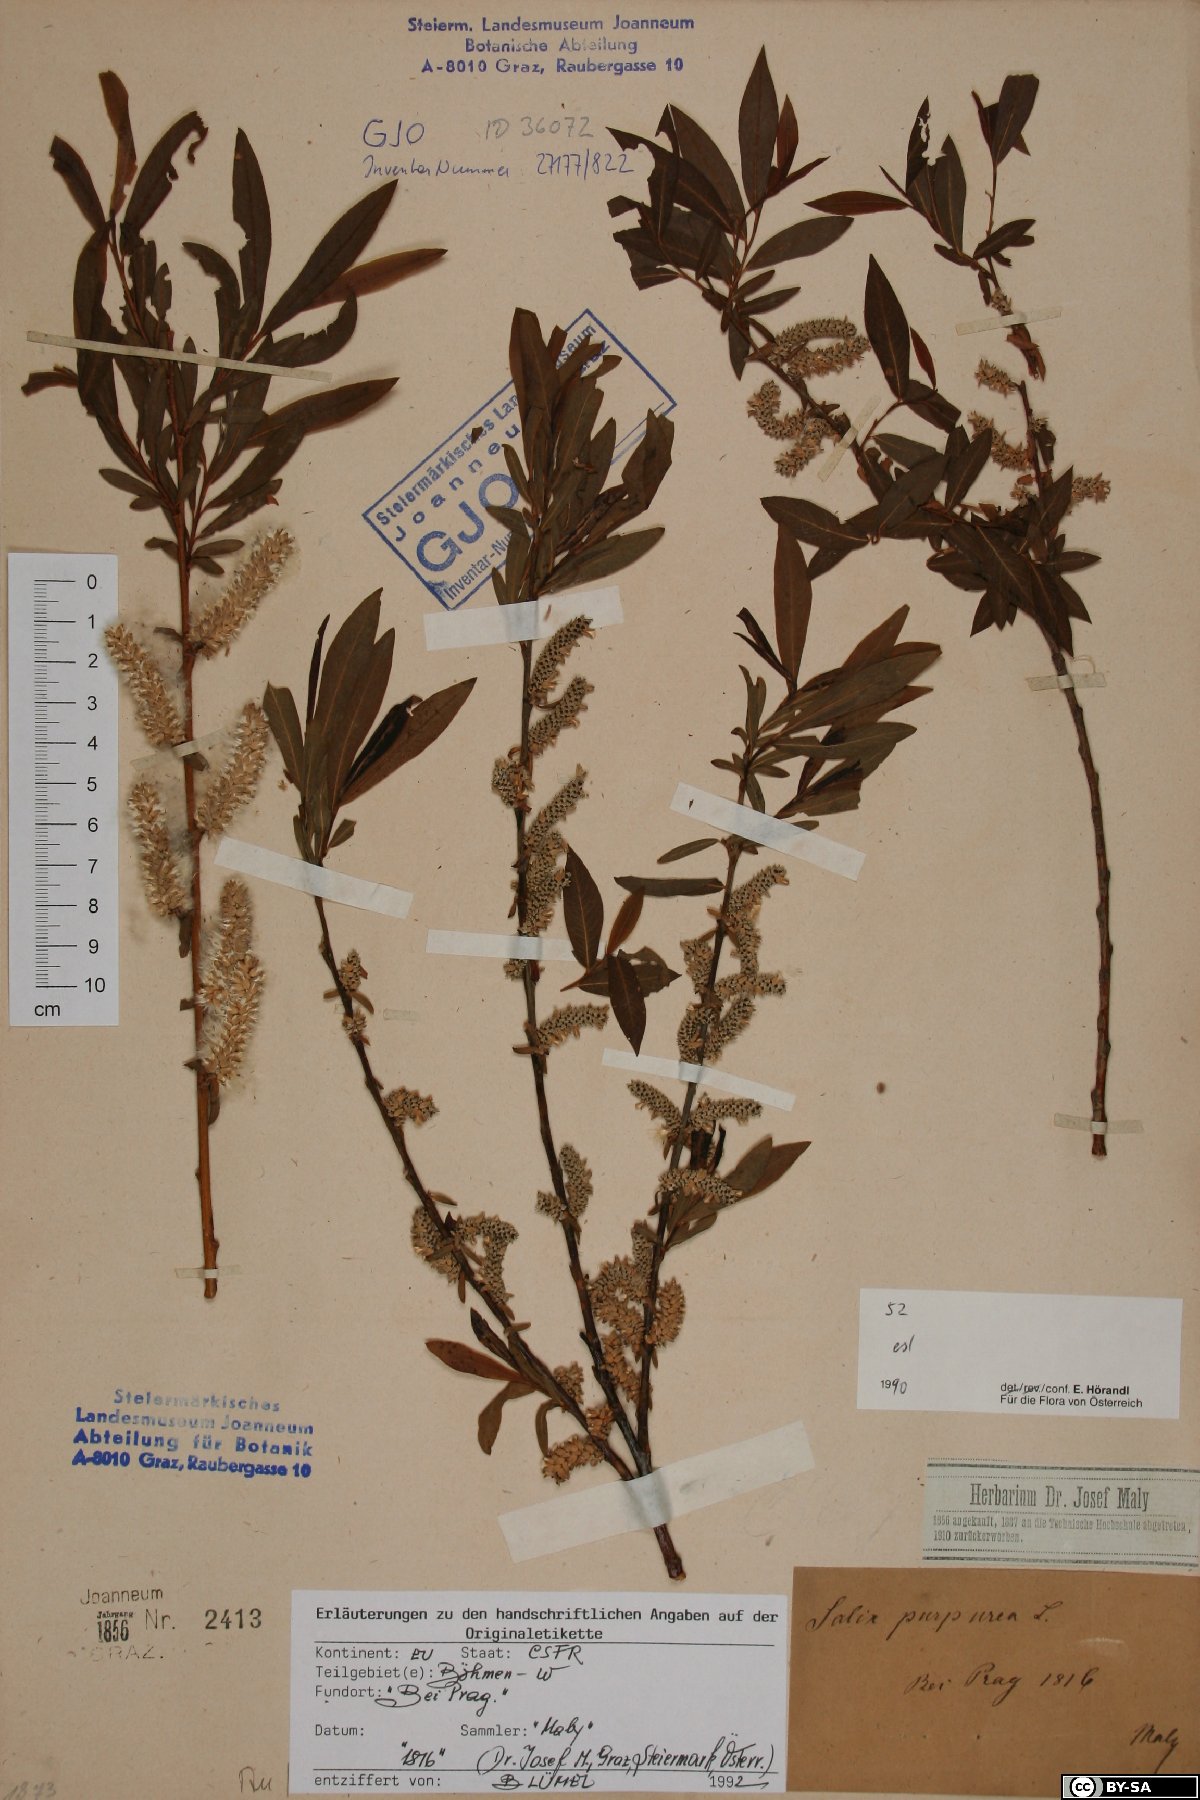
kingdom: Plantae
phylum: Tracheophyta
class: Magnoliopsida
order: Malpighiales
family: Salicaceae
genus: Salix
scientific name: Salix purpurea
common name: Purple willow
